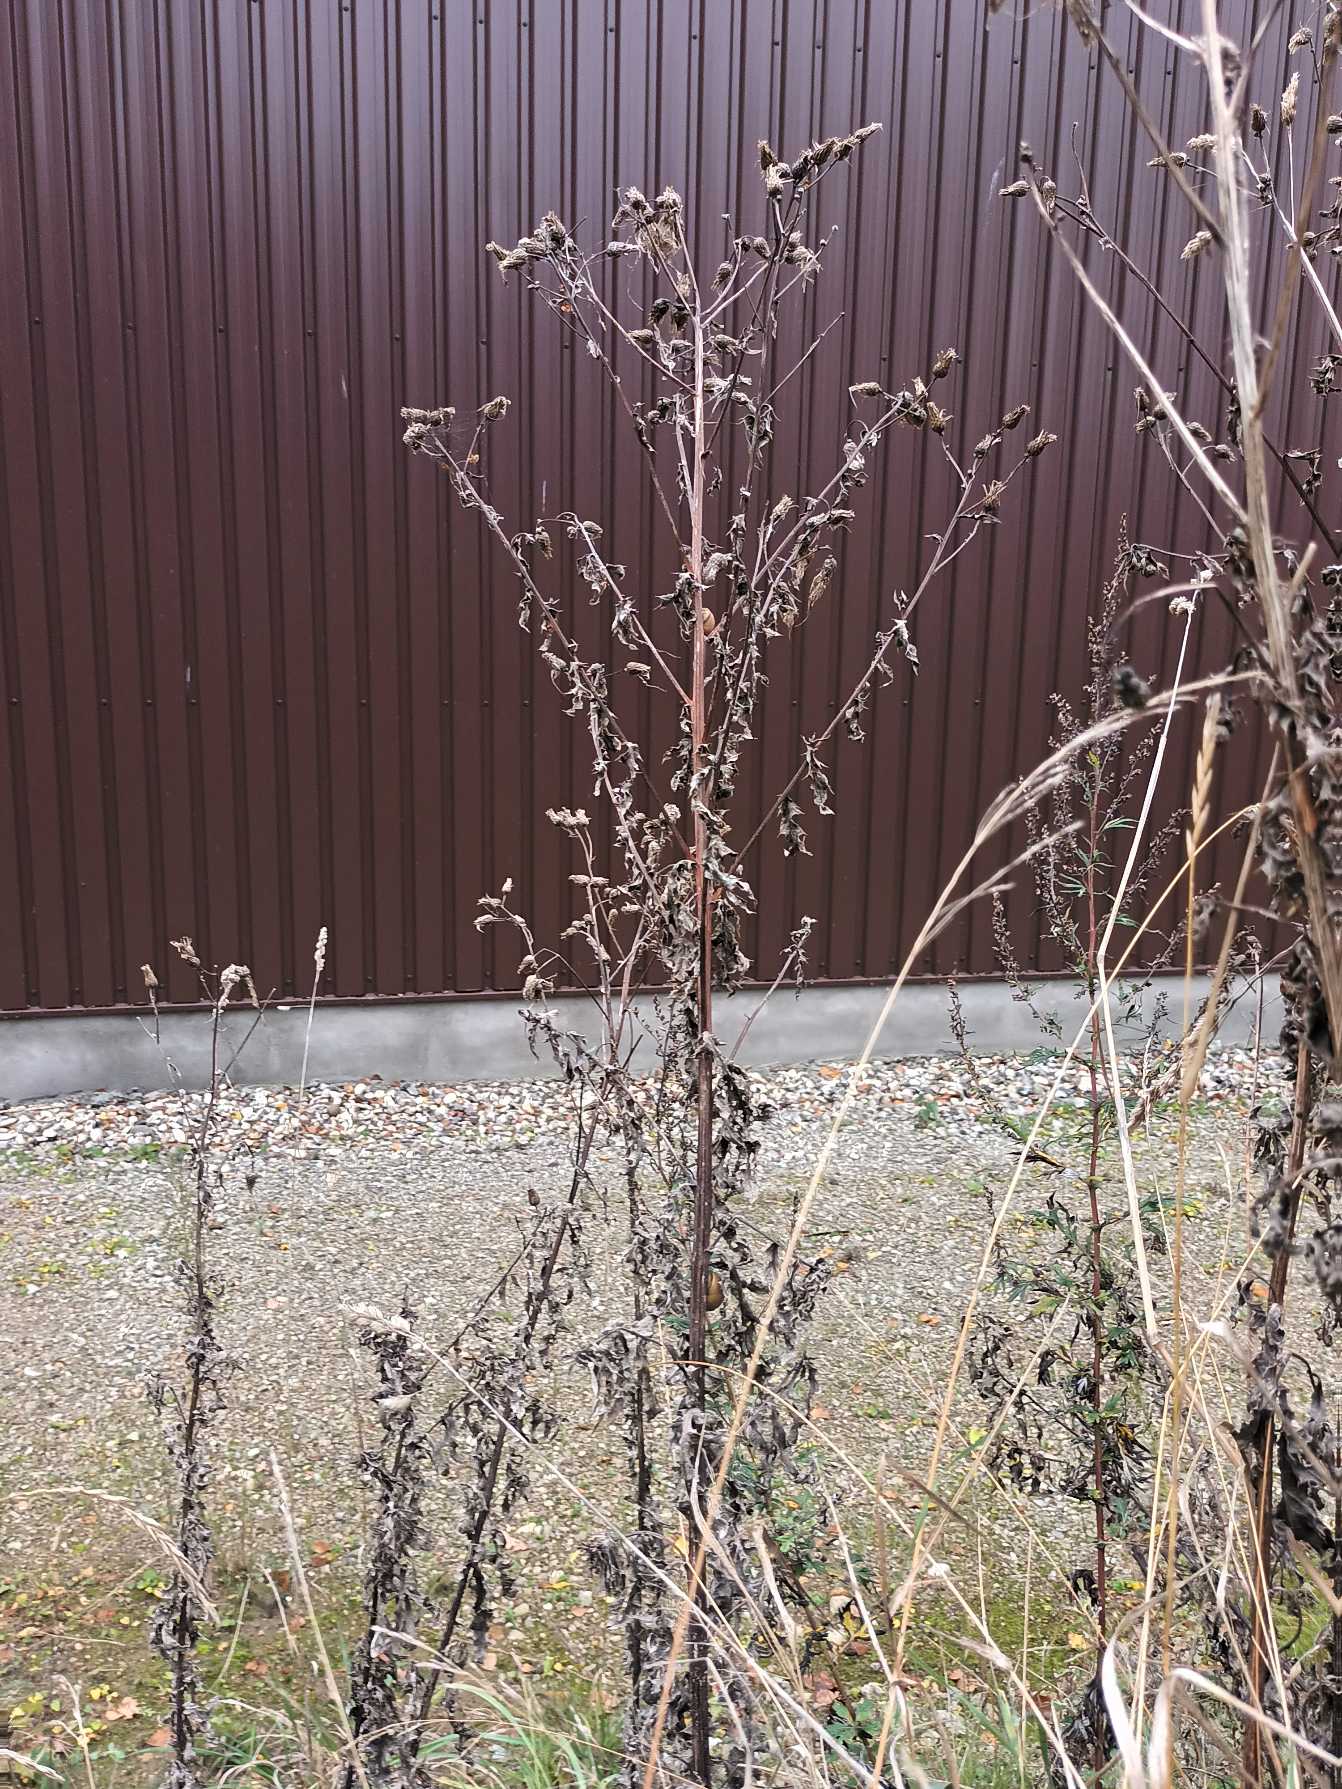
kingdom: Plantae
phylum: Tracheophyta
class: Magnoliopsida
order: Asterales
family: Asteraceae
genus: Carduus
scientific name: Carduus crispus
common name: Kruset tidsel
